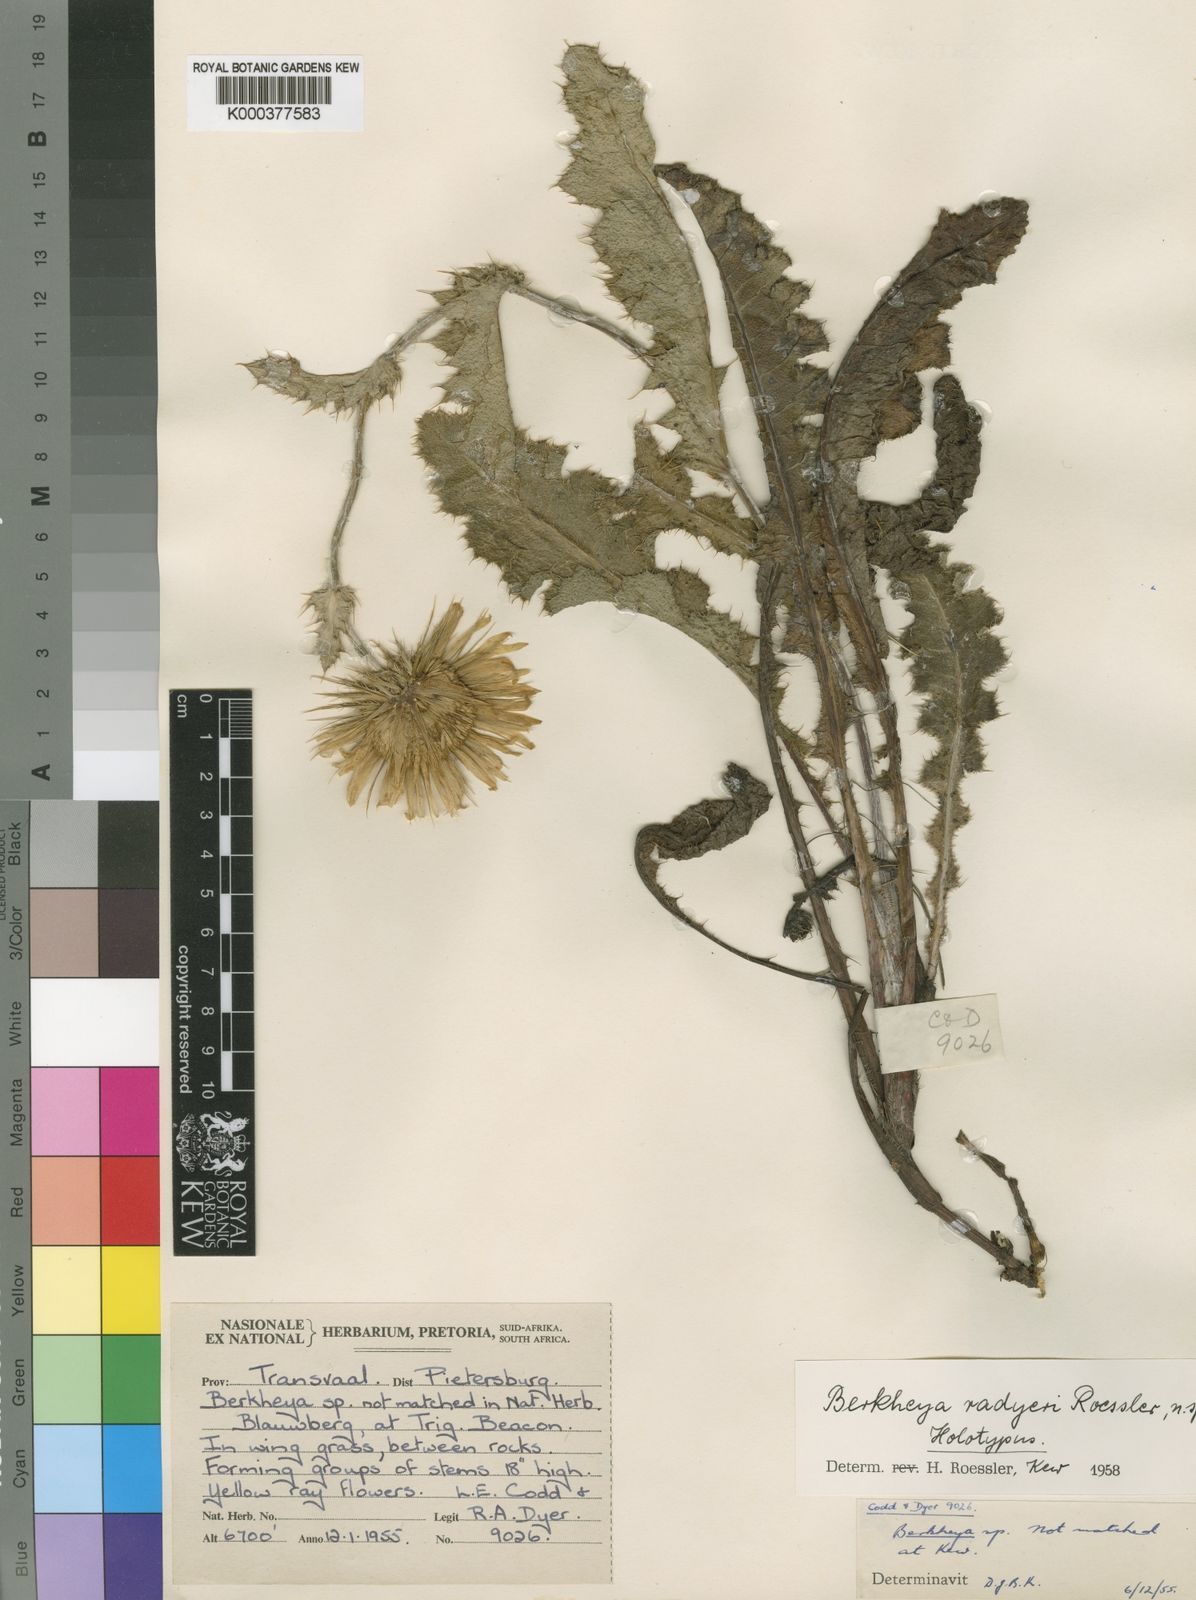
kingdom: Plantae
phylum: Tracheophyta
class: Magnoliopsida
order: Asterales
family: Asteraceae
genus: Berkheya
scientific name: Berkheya radyeri
